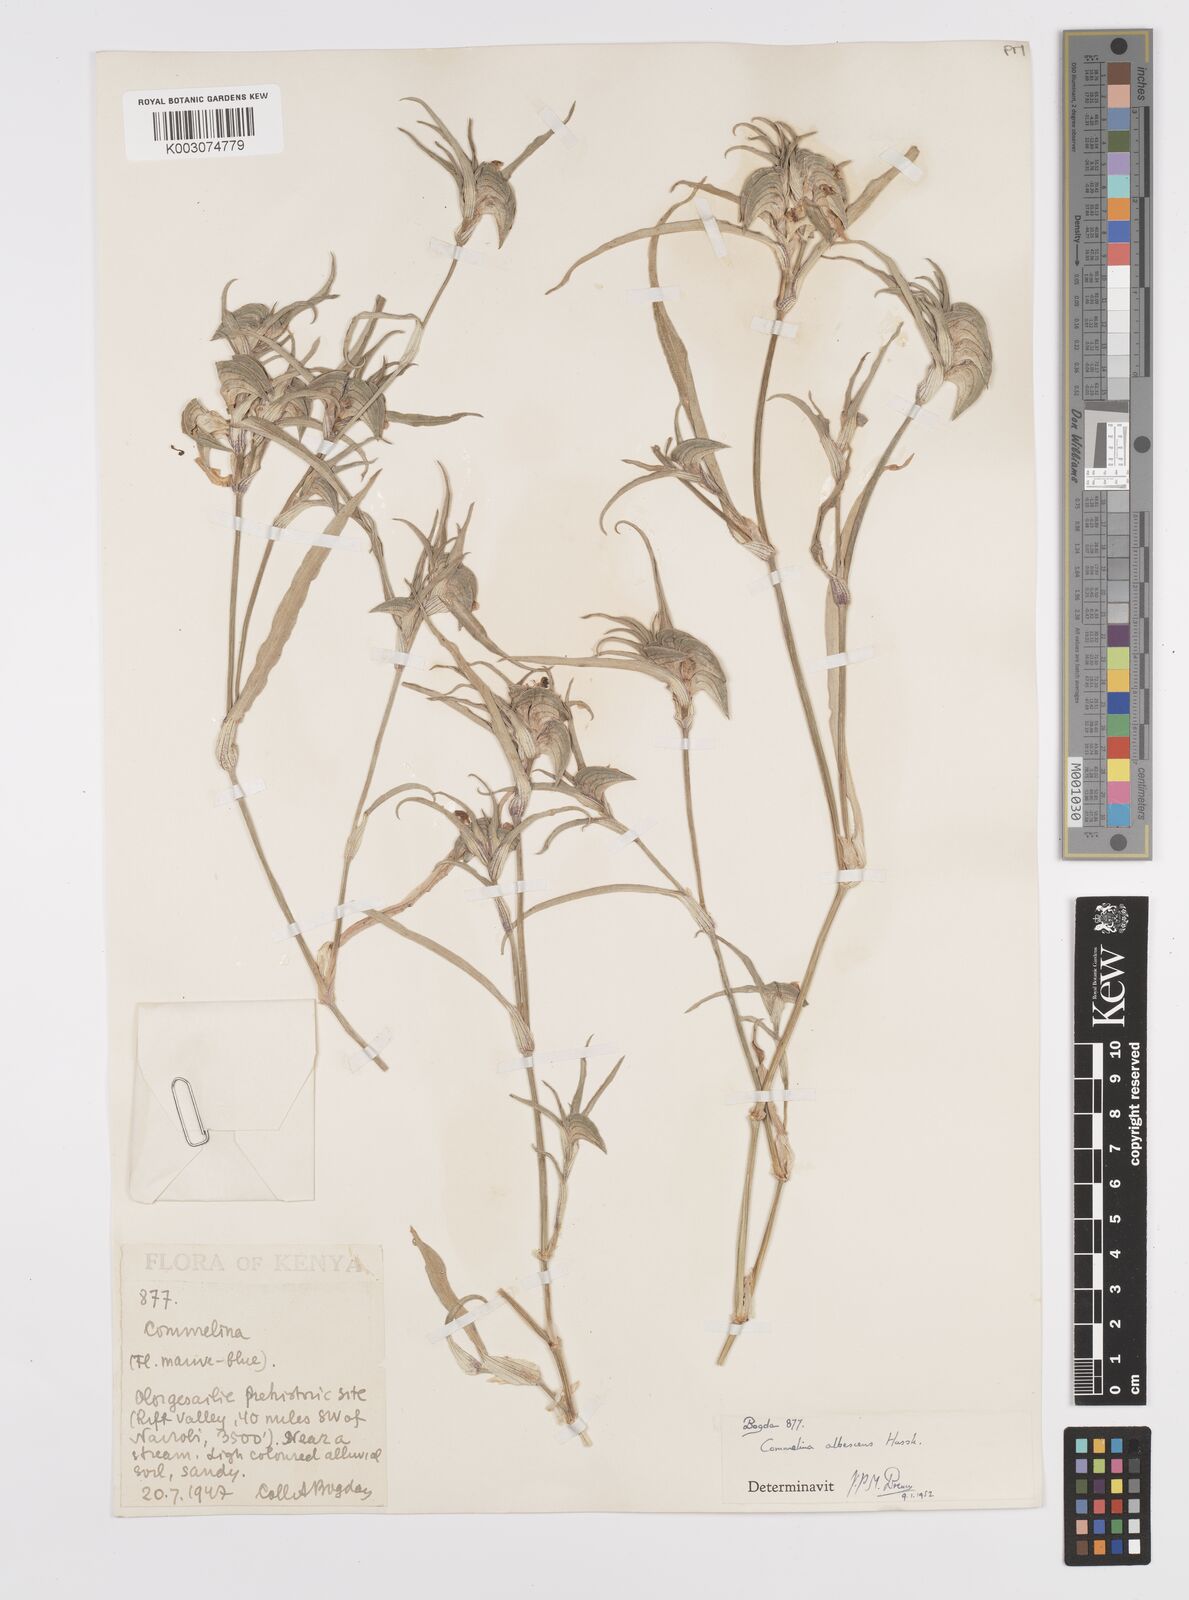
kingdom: Plantae
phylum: Tracheophyta
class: Liliopsida
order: Commelinales
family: Commelinaceae
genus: Commelina
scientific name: Commelina albescens
